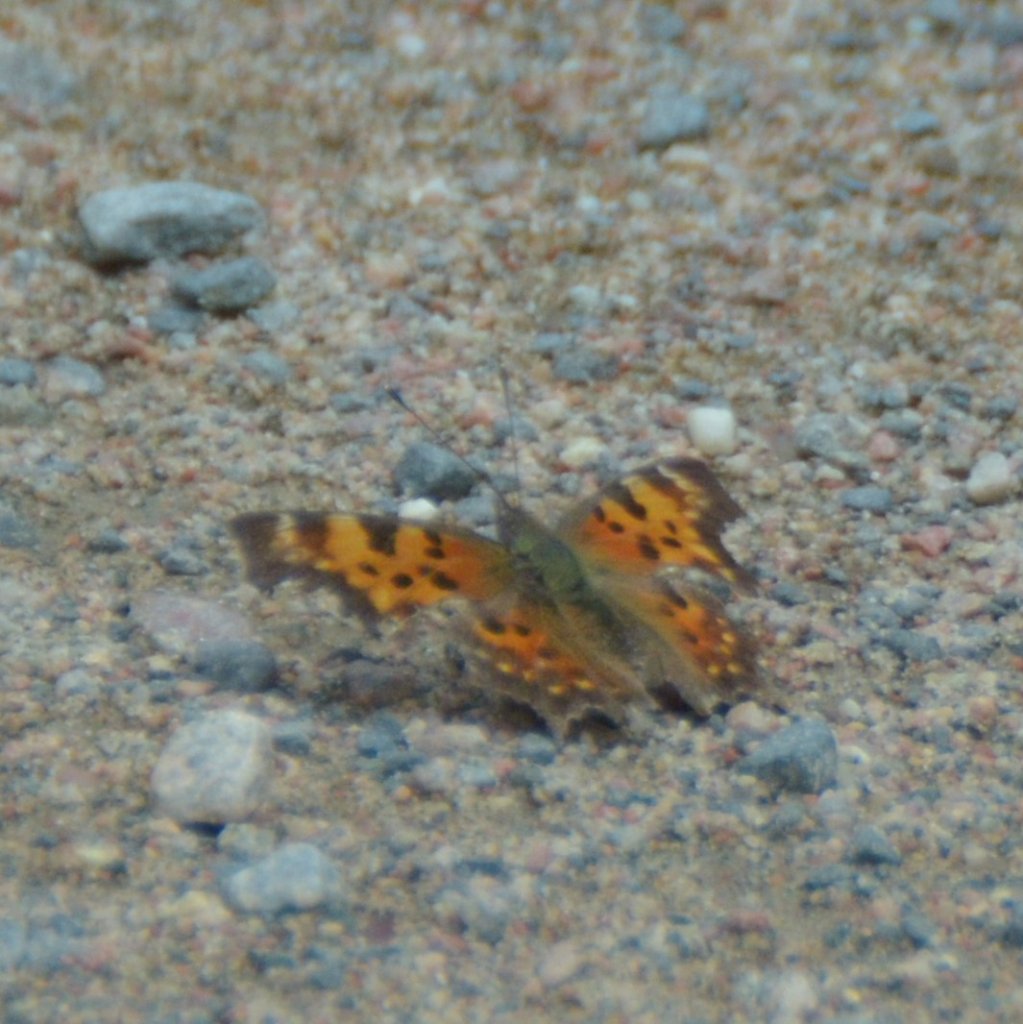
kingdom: Animalia
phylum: Arthropoda
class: Insecta
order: Lepidoptera
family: Nymphalidae
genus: Polygonia
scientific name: Polygonia faunus
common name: Green Comma
